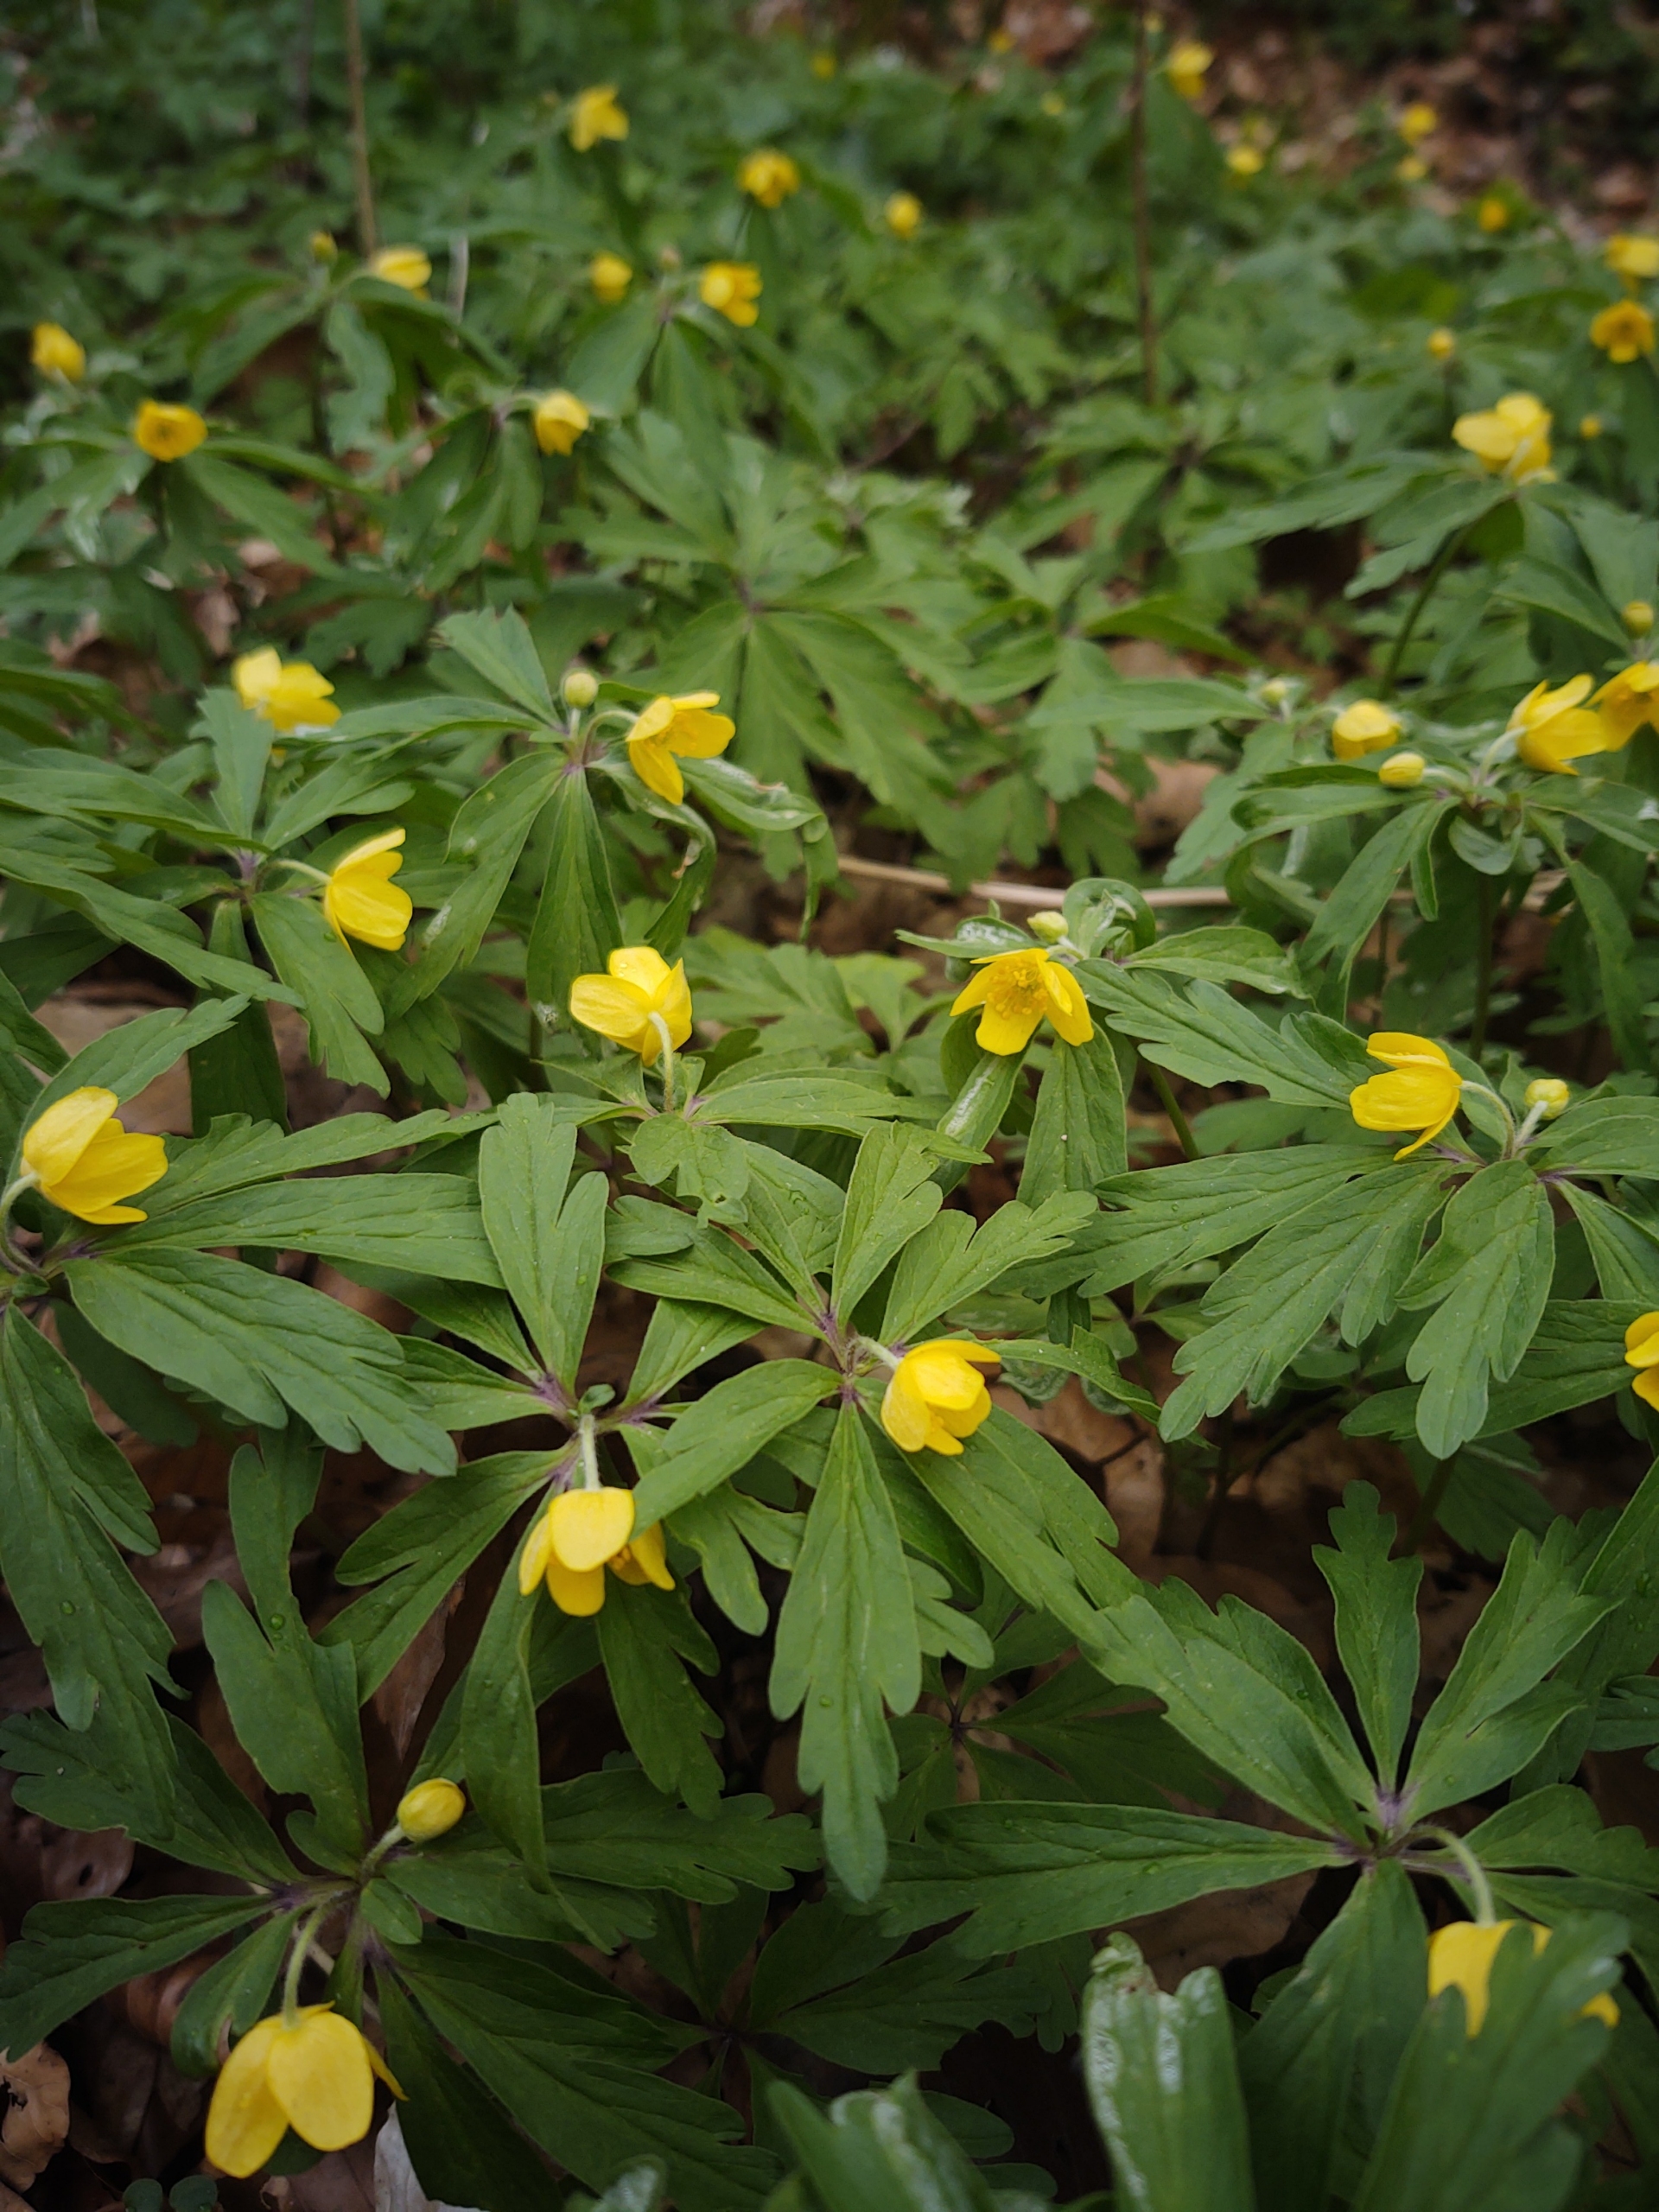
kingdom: Plantae
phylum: Tracheophyta
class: Magnoliopsida
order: Ranunculales
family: Ranunculaceae
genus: Anemone
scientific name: Anemone ranunculoides
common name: Gul anemone
